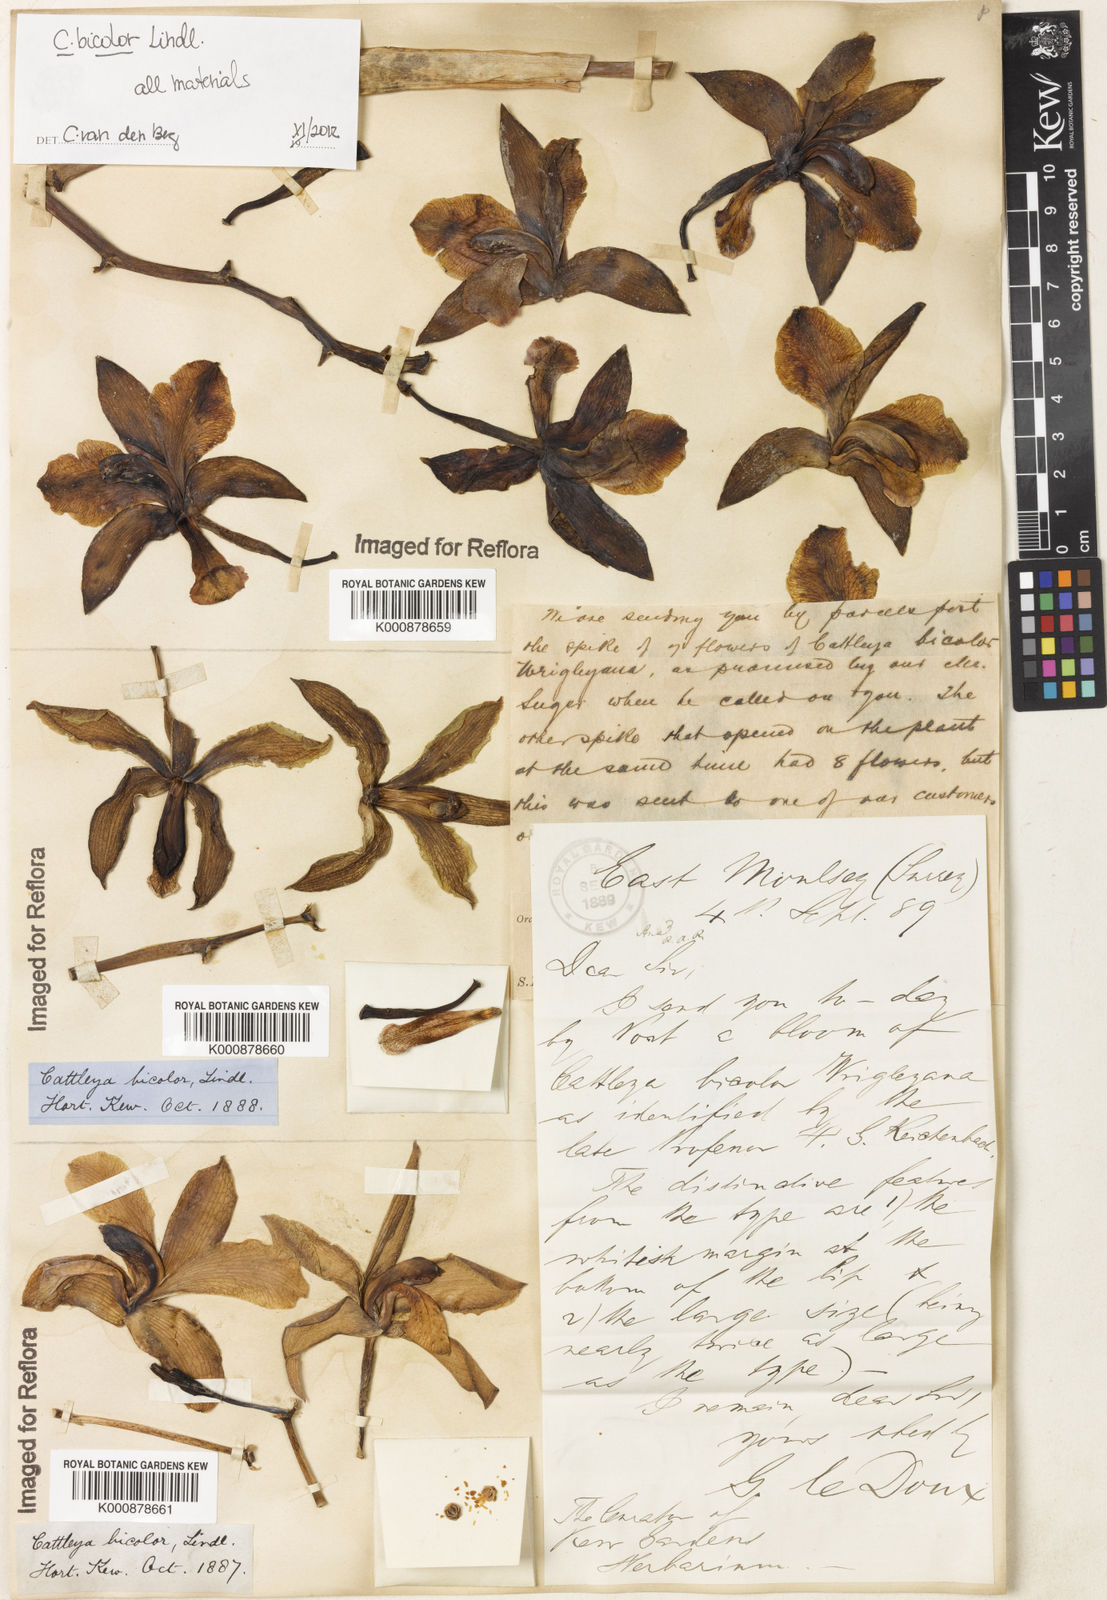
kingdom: Plantae
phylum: Tracheophyta
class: Liliopsida
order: Asparagales
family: Orchidaceae
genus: Cattleya
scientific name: Cattleya bicolor
